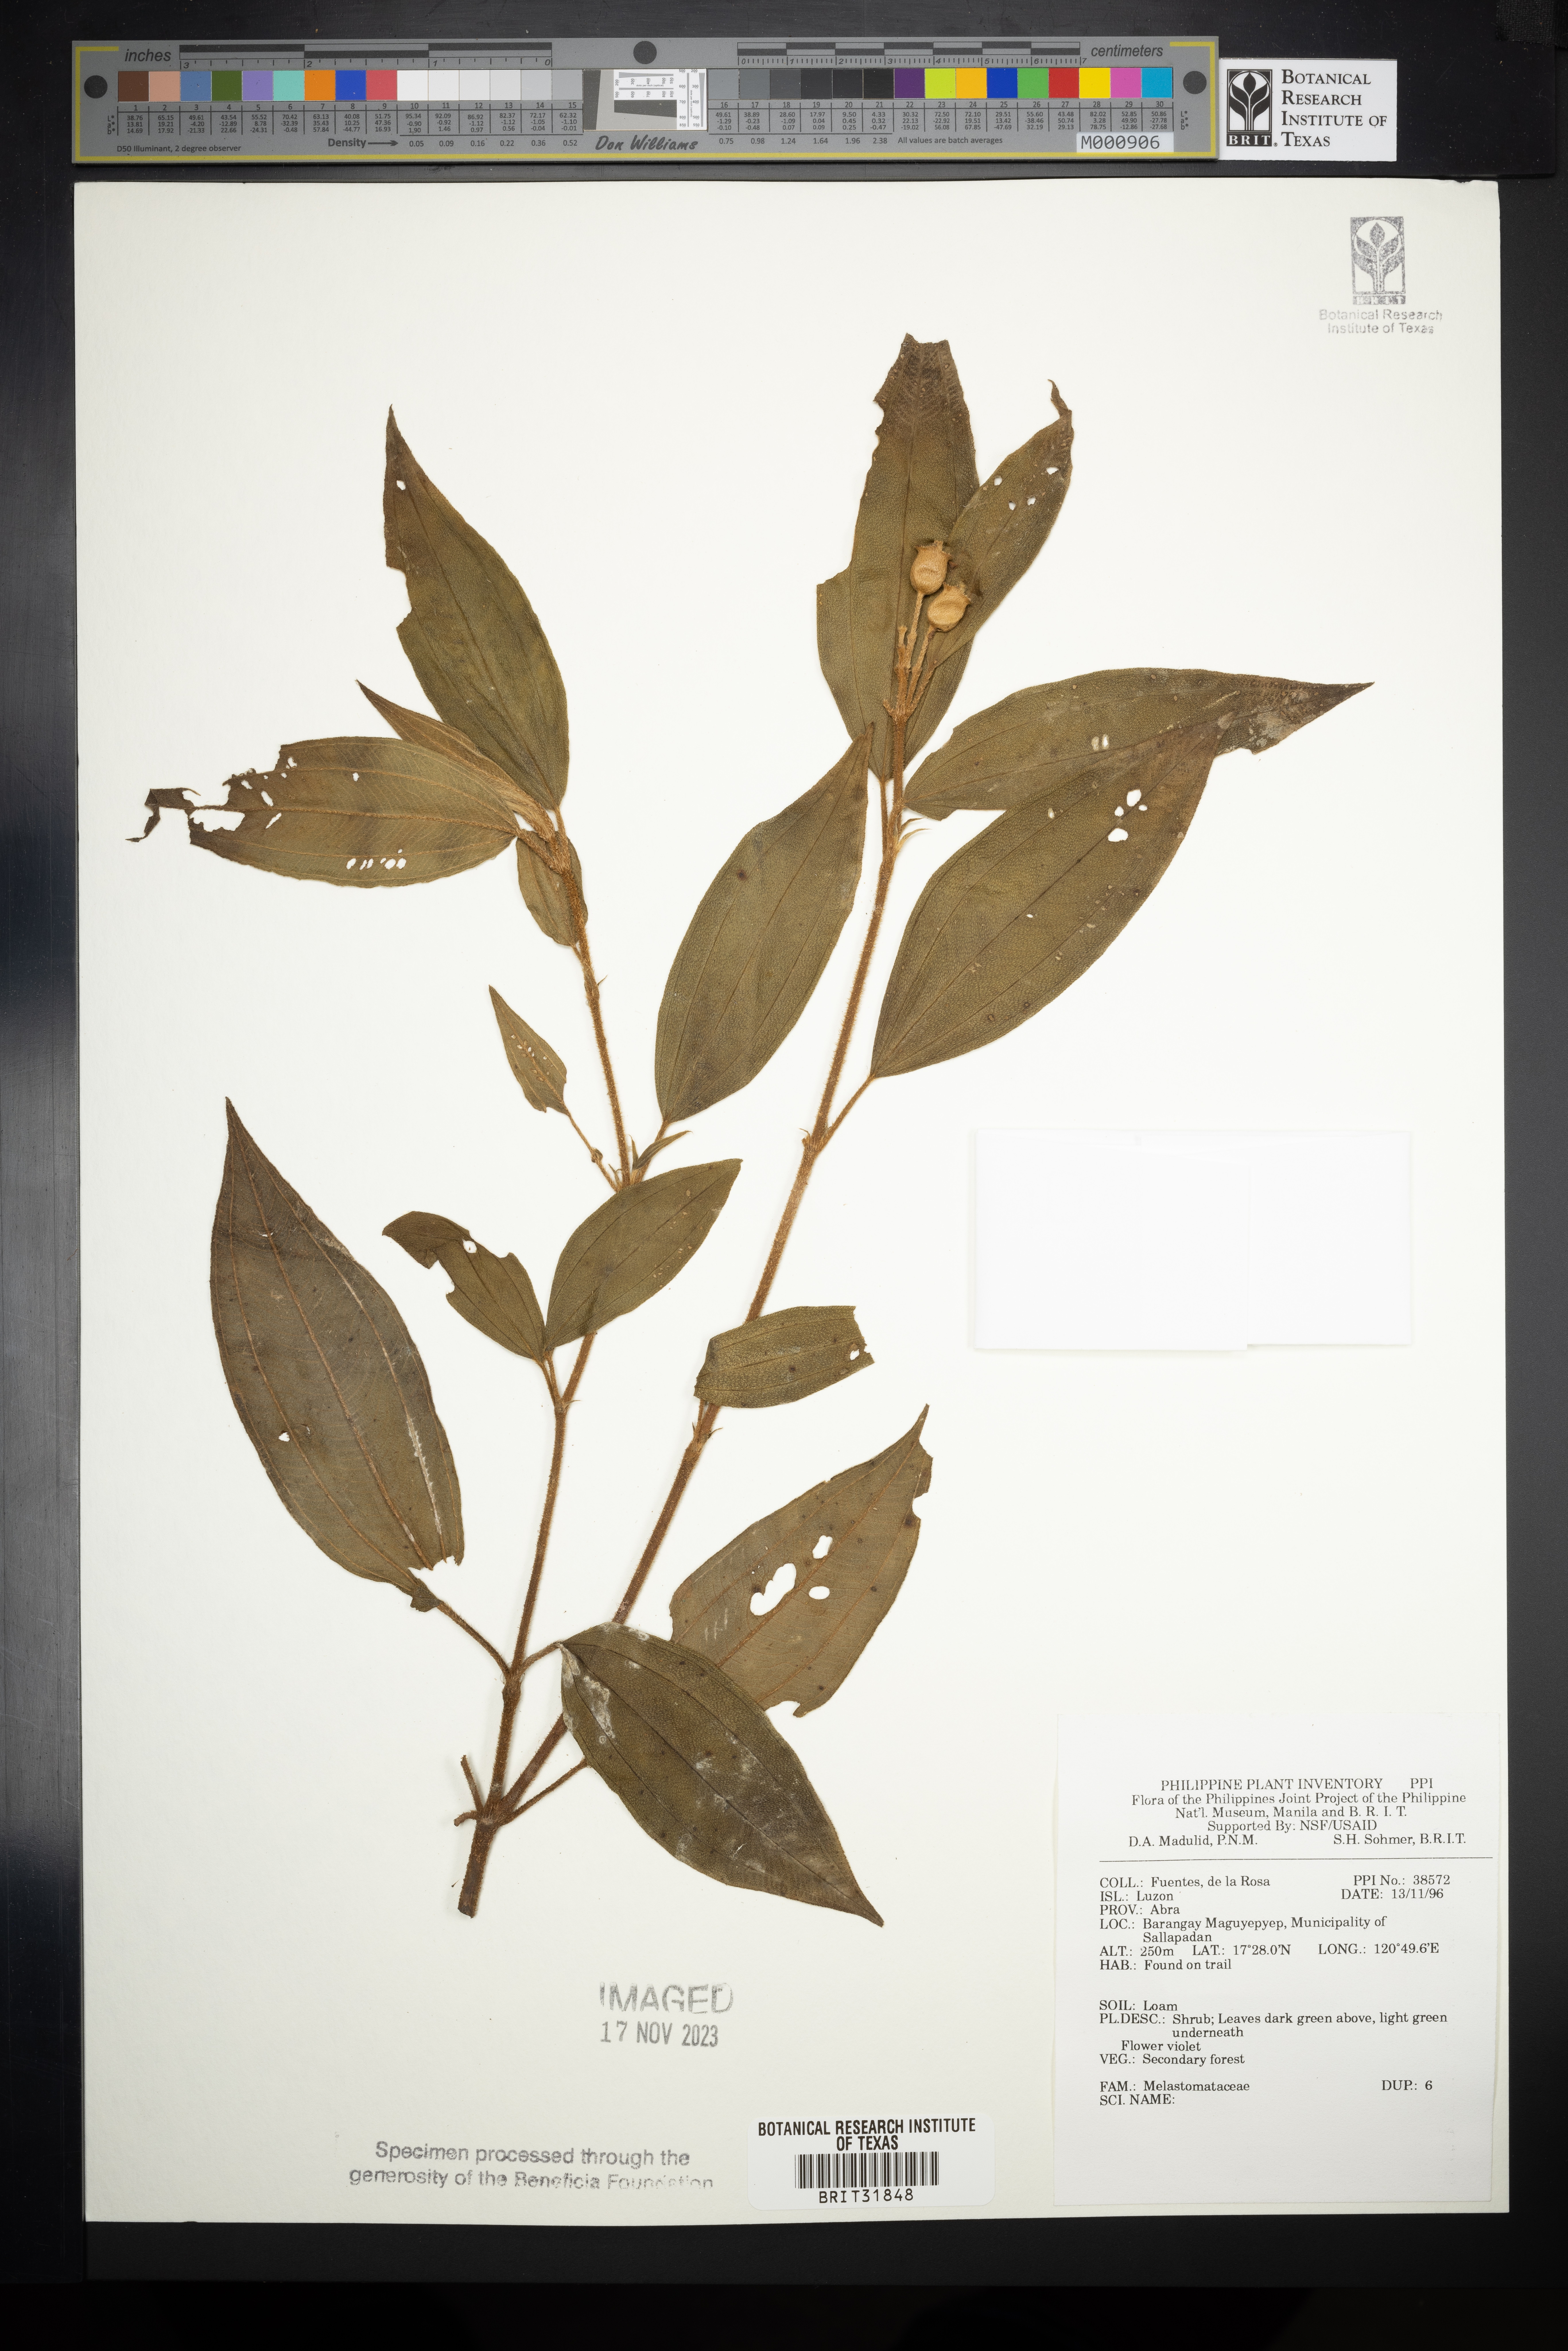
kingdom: Plantae
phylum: Tracheophyta
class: Magnoliopsida
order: Myrtales
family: Melastomataceae
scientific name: Melastomataceae
